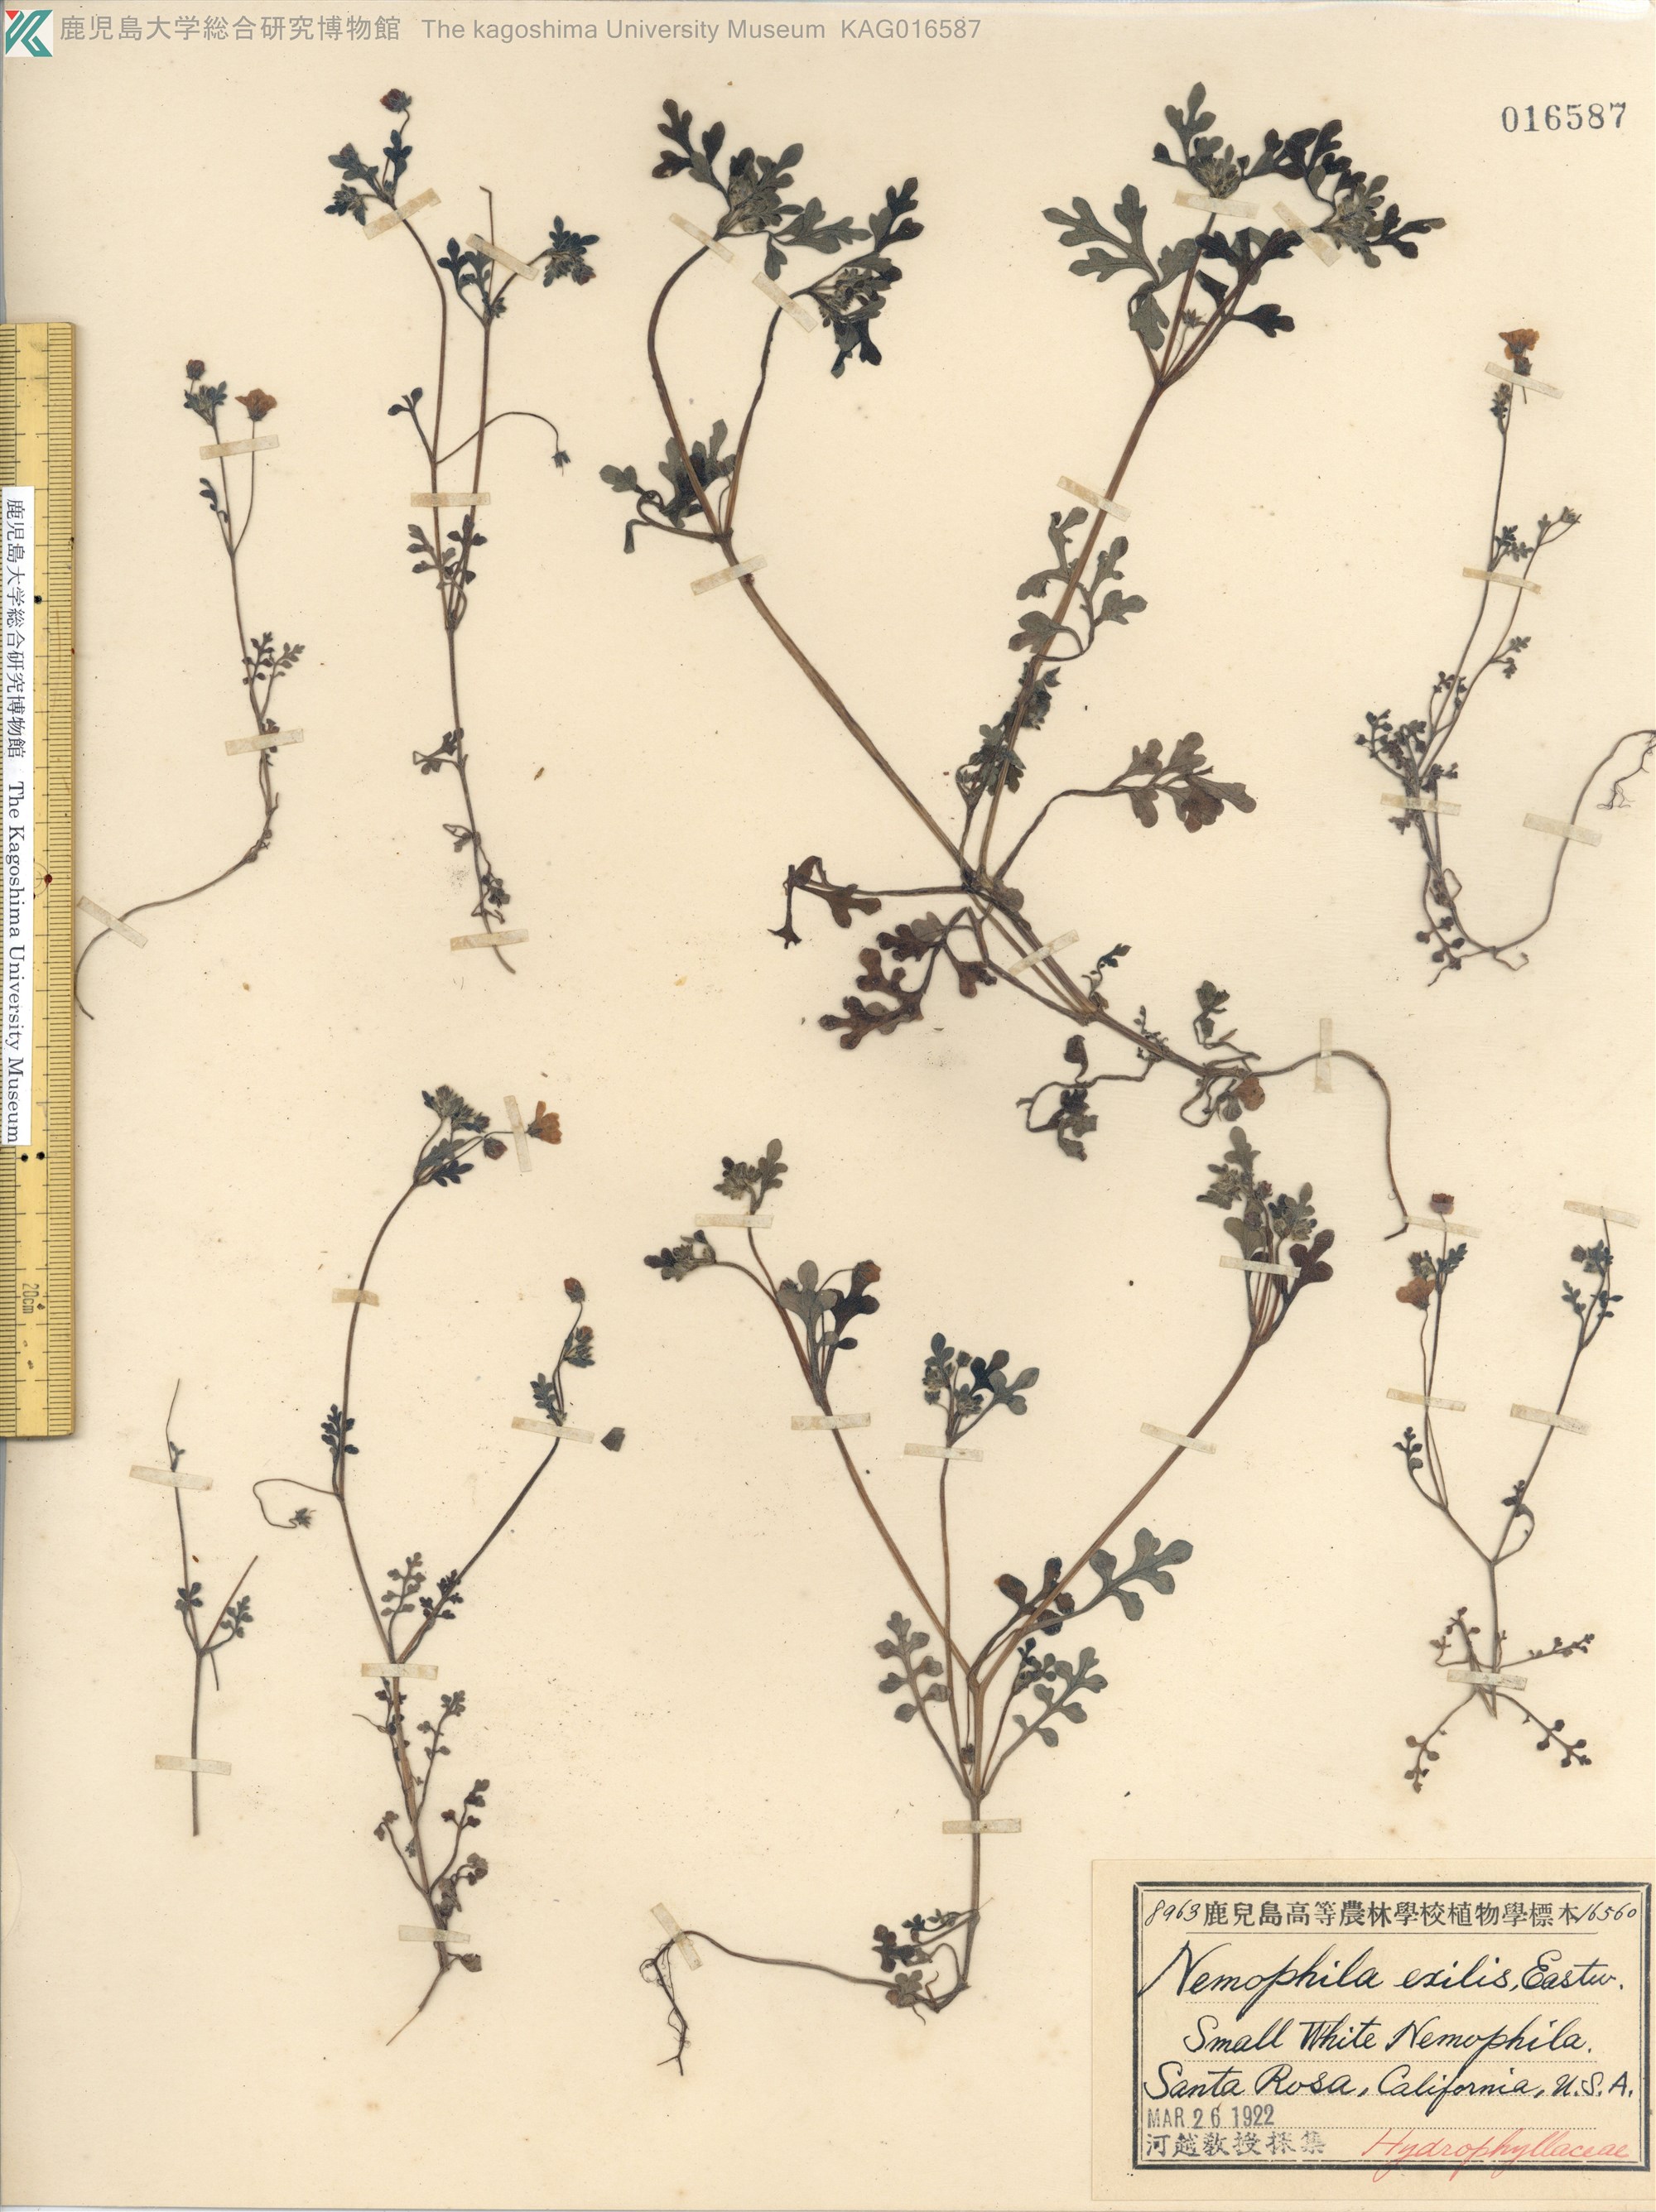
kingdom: Plantae
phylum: Tracheophyta
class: Magnoliopsida
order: Boraginales
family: Hydrophyllaceae
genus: Nemophila
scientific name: Nemophila heterophylla
